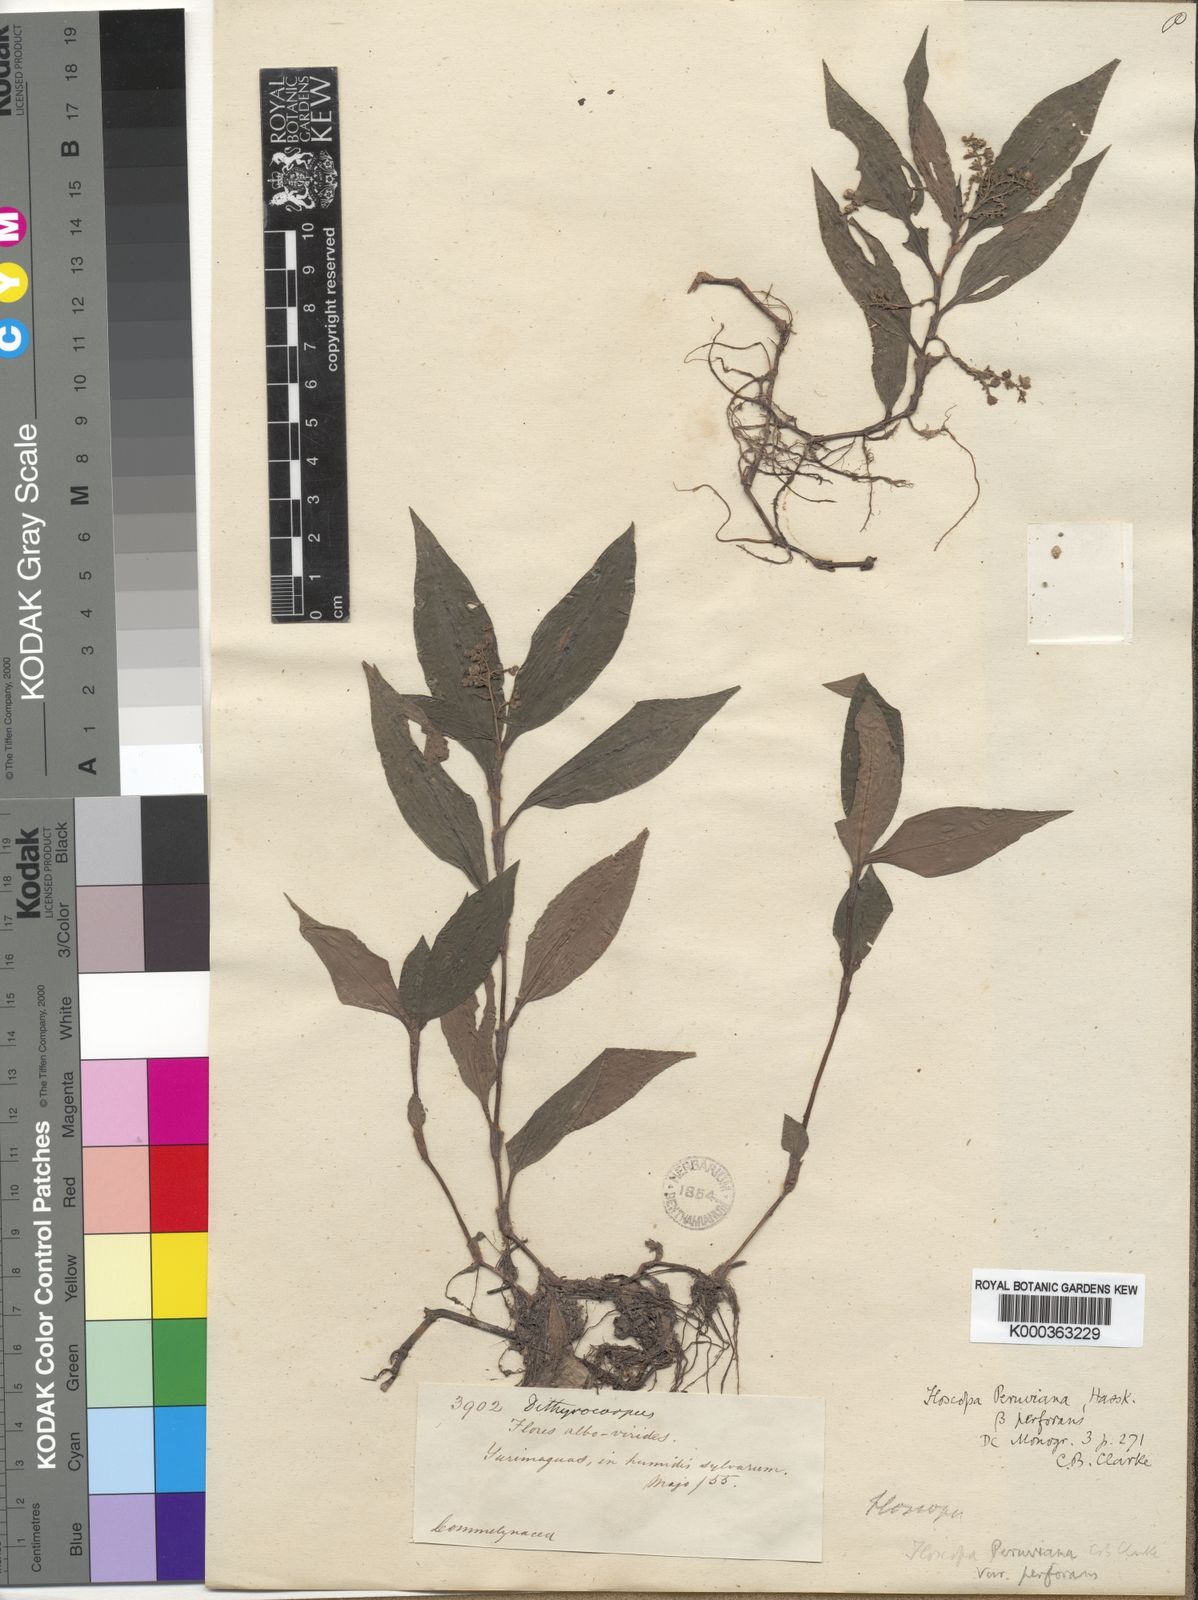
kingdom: Plantae
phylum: Tracheophyta
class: Liliopsida
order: Commelinales
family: Commelinaceae
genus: Floscopa
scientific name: Floscopa peruviana
